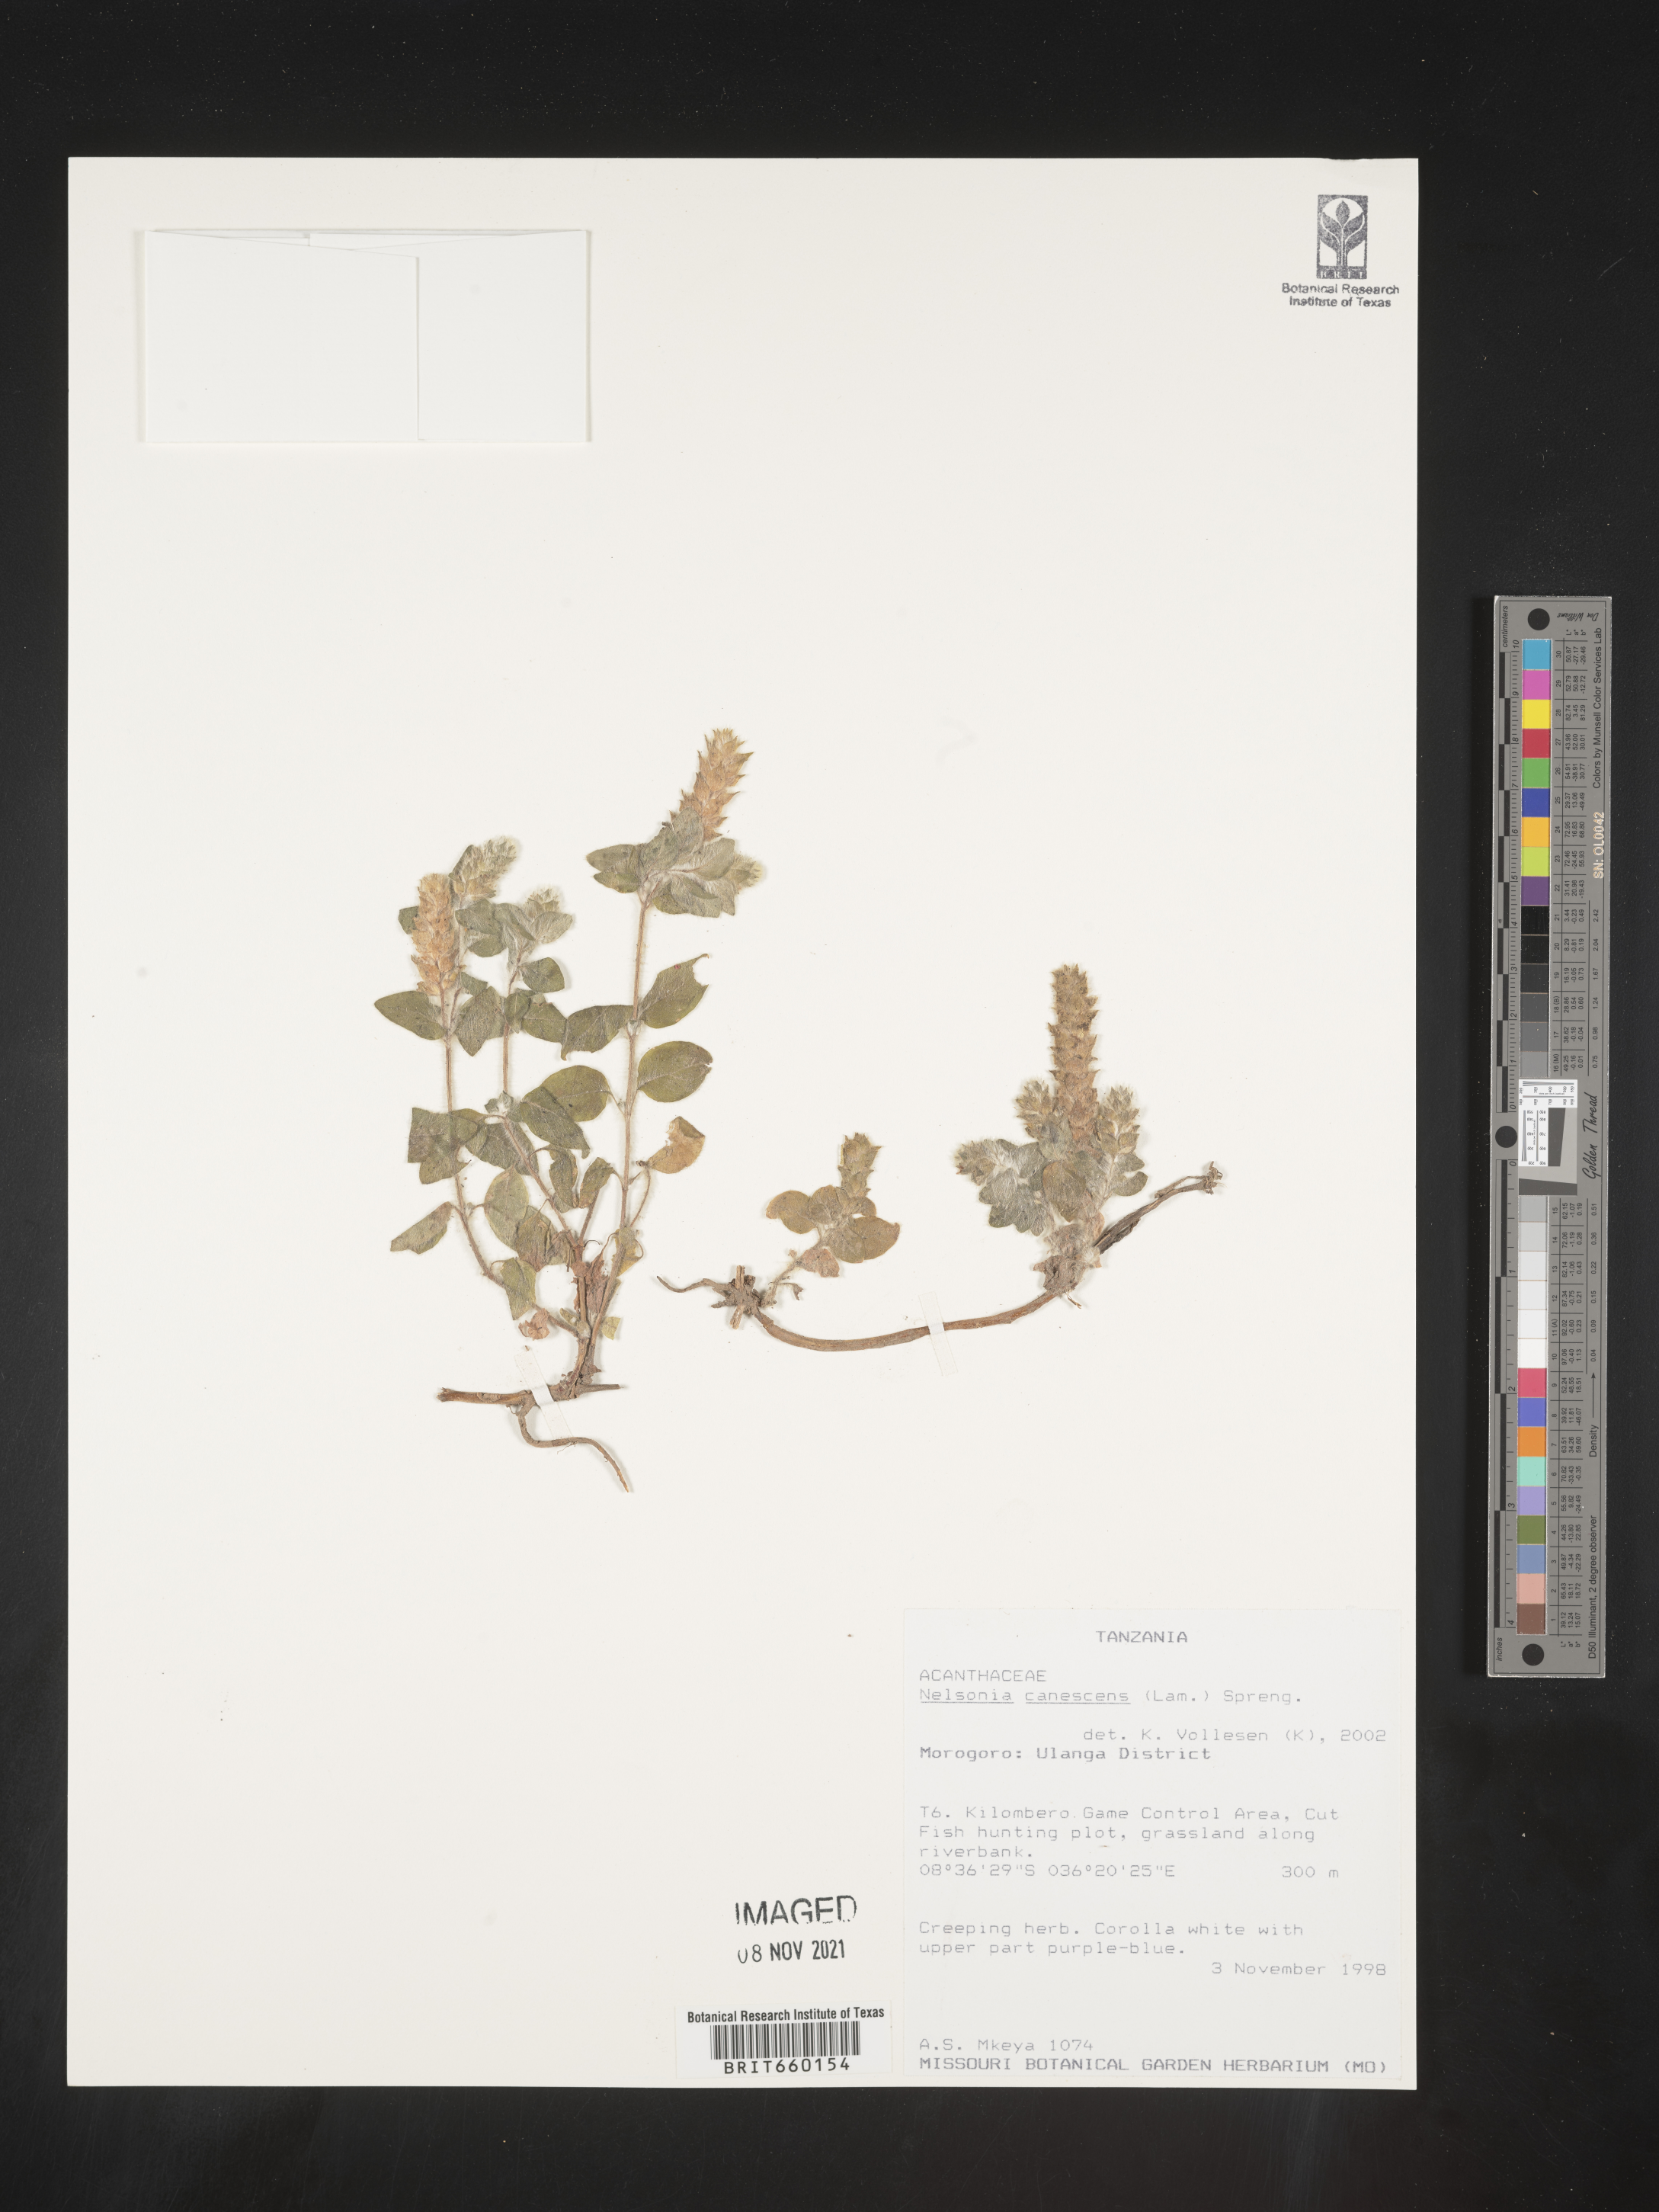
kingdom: Plantae
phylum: Tracheophyta
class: Magnoliopsida
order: Lamiales
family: Acanthaceae
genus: Nelsonia
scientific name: Nelsonia
